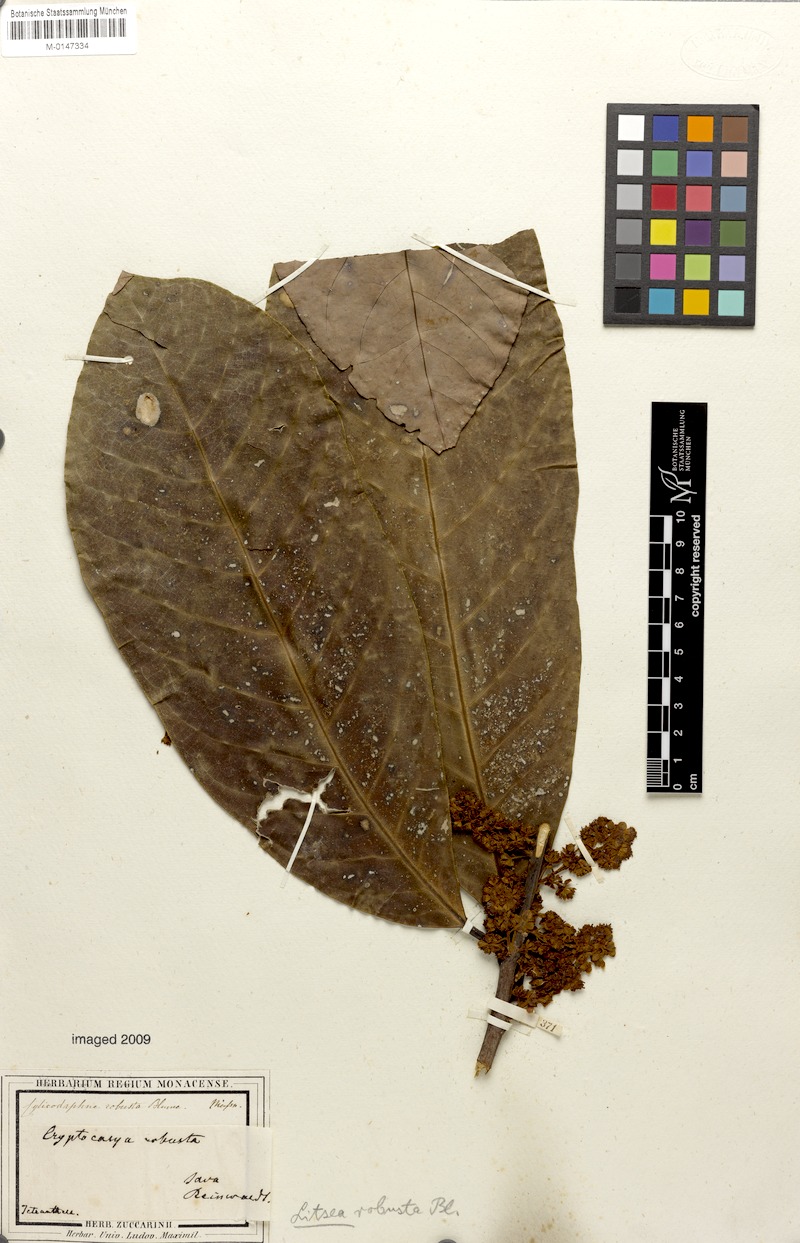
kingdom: Plantae
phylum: Tracheophyta
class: Magnoliopsida
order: Laurales
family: Lauraceae
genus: Litsea
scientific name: Litsea robusta
